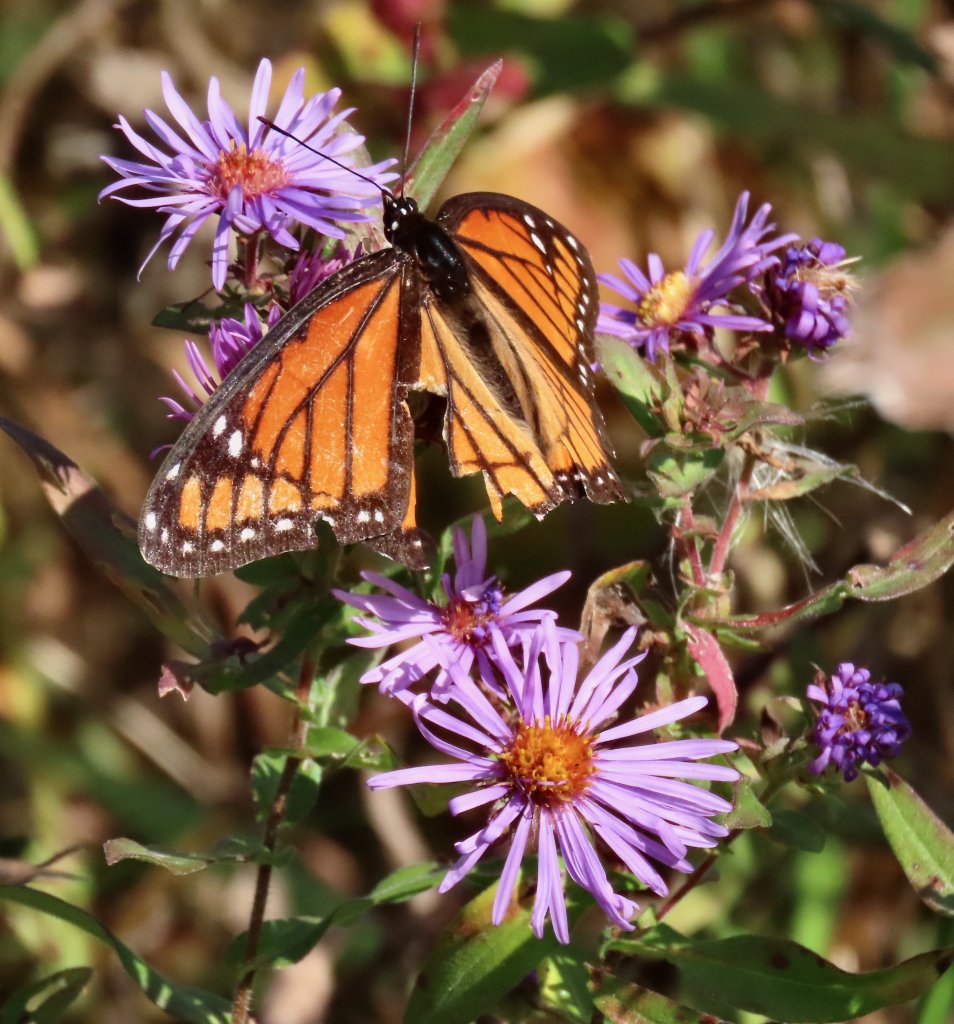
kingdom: Animalia
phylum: Arthropoda
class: Insecta
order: Lepidoptera
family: Nymphalidae
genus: Limenitis
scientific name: Limenitis archippus
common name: Viceroy
